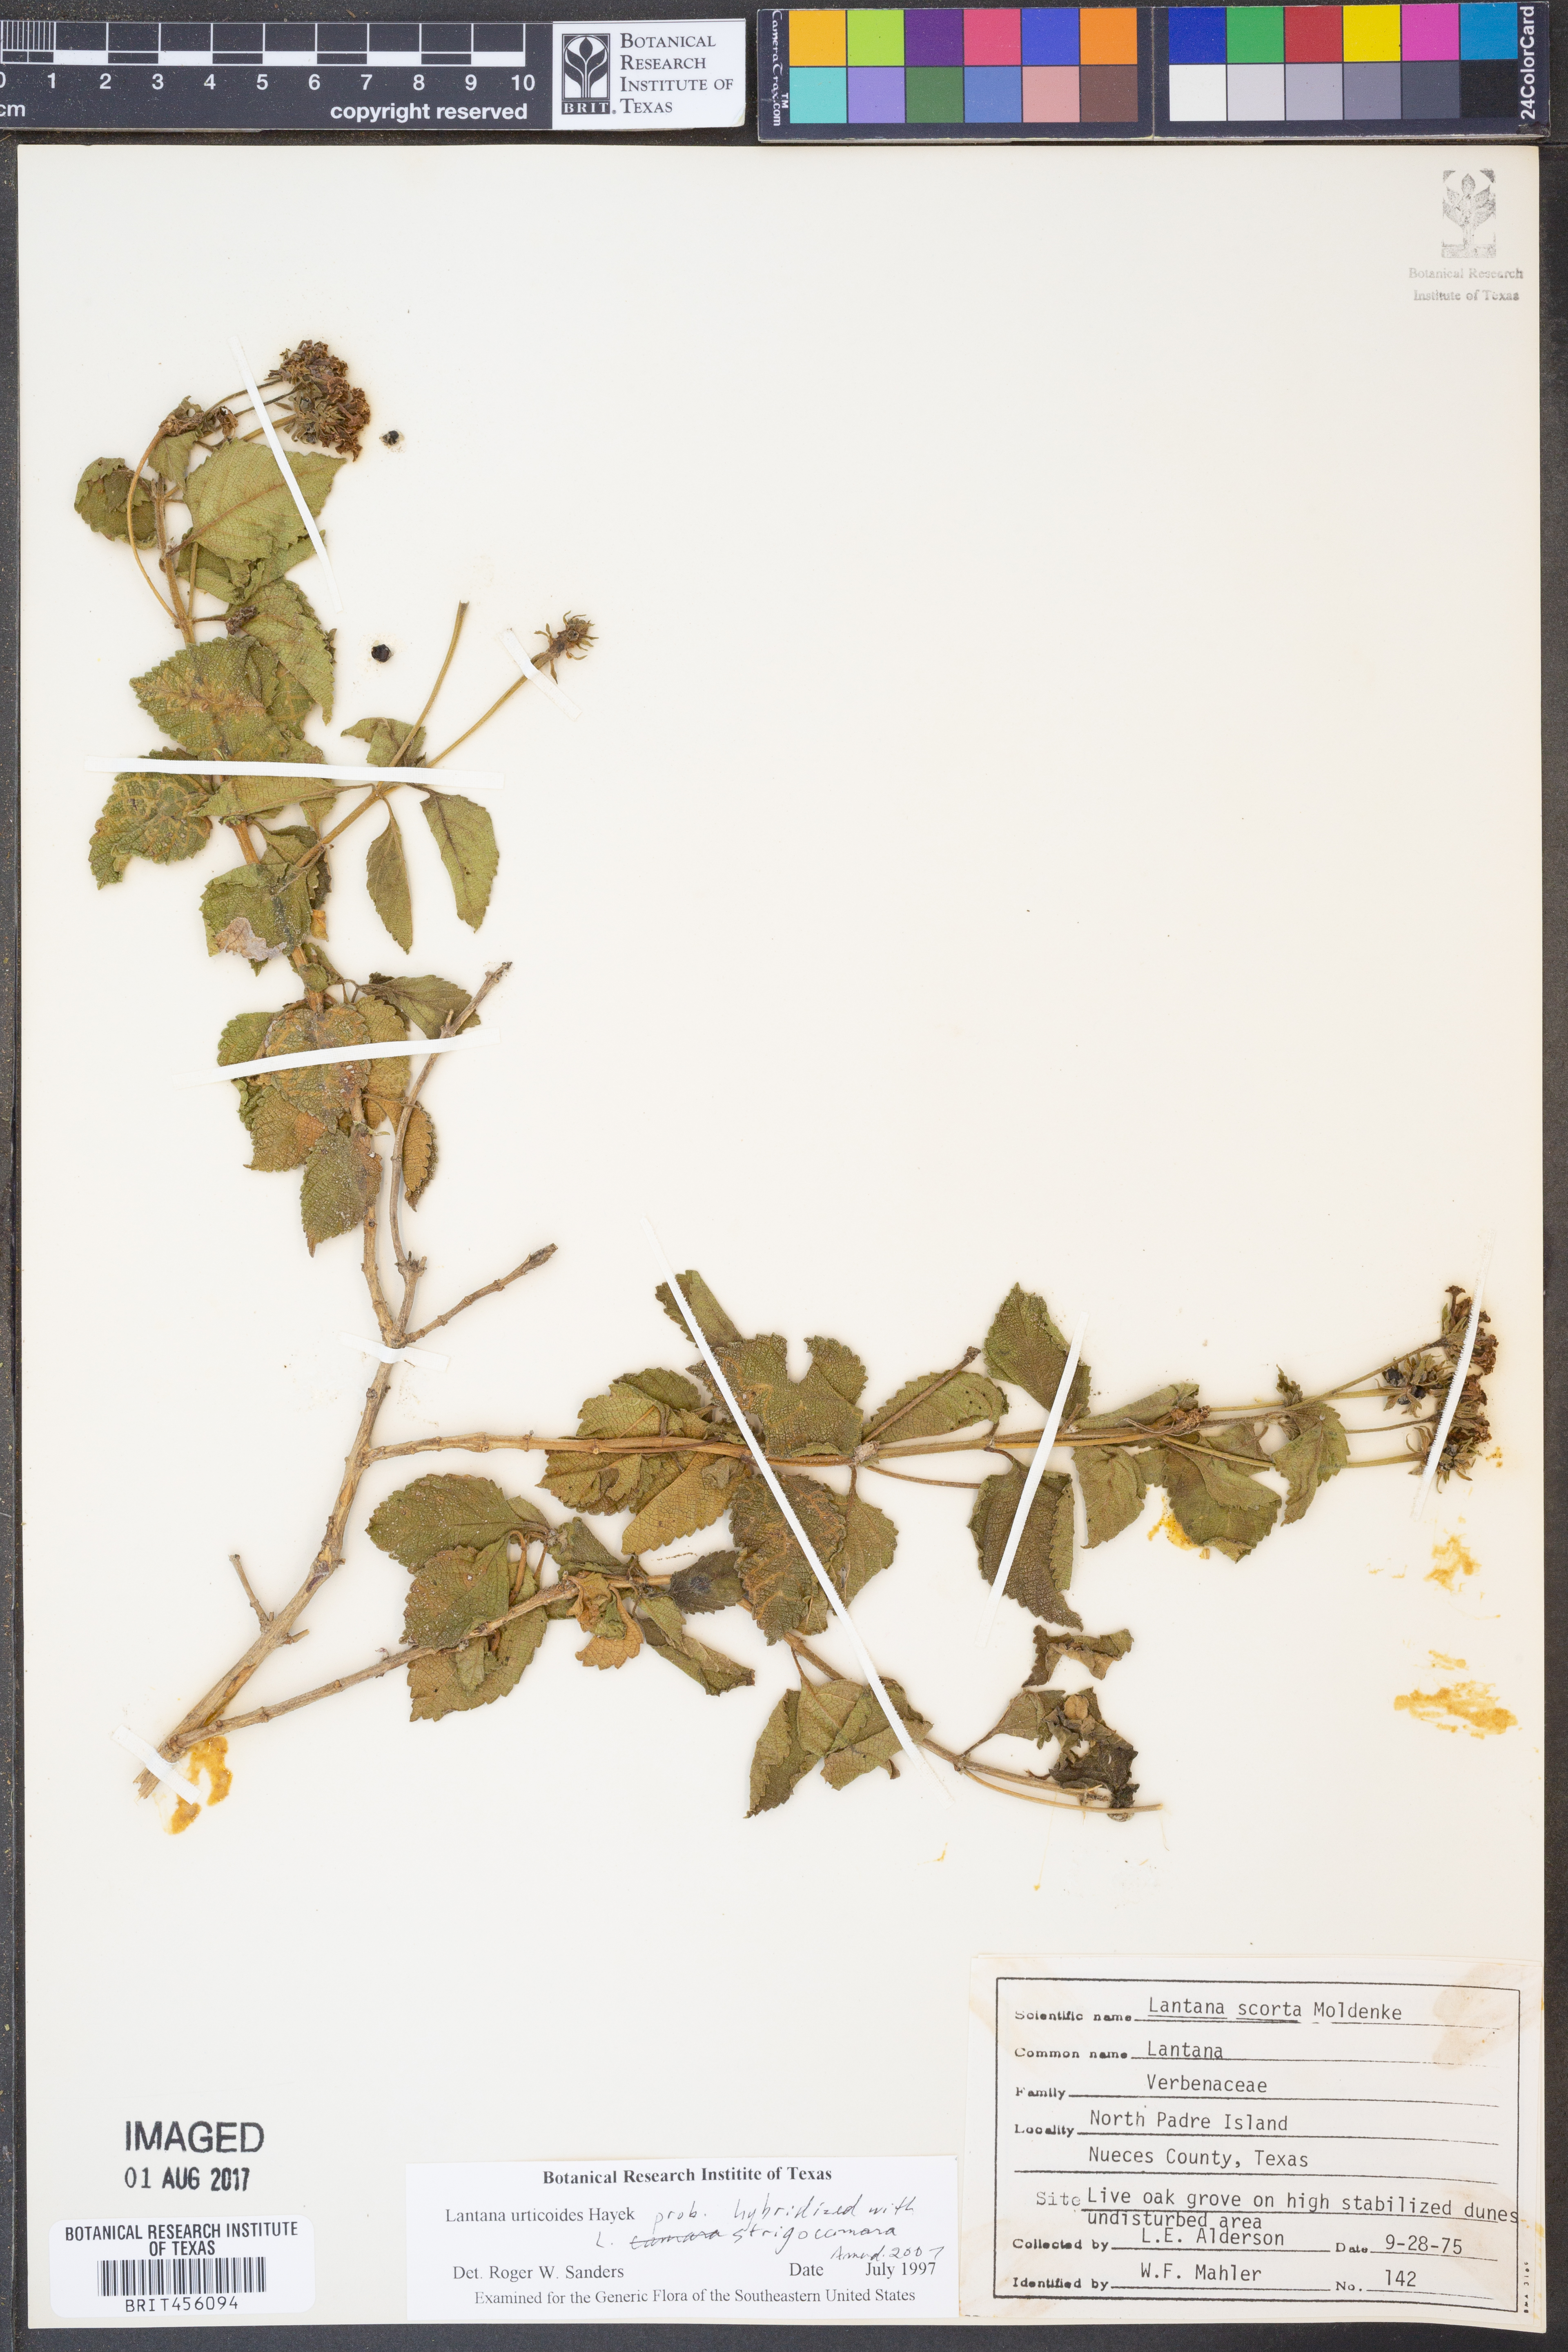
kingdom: Plantae
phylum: Tracheophyta
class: Magnoliopsida
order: Lamiales
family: Verbenaceae
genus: Lantana
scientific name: Lantana hirsuta
